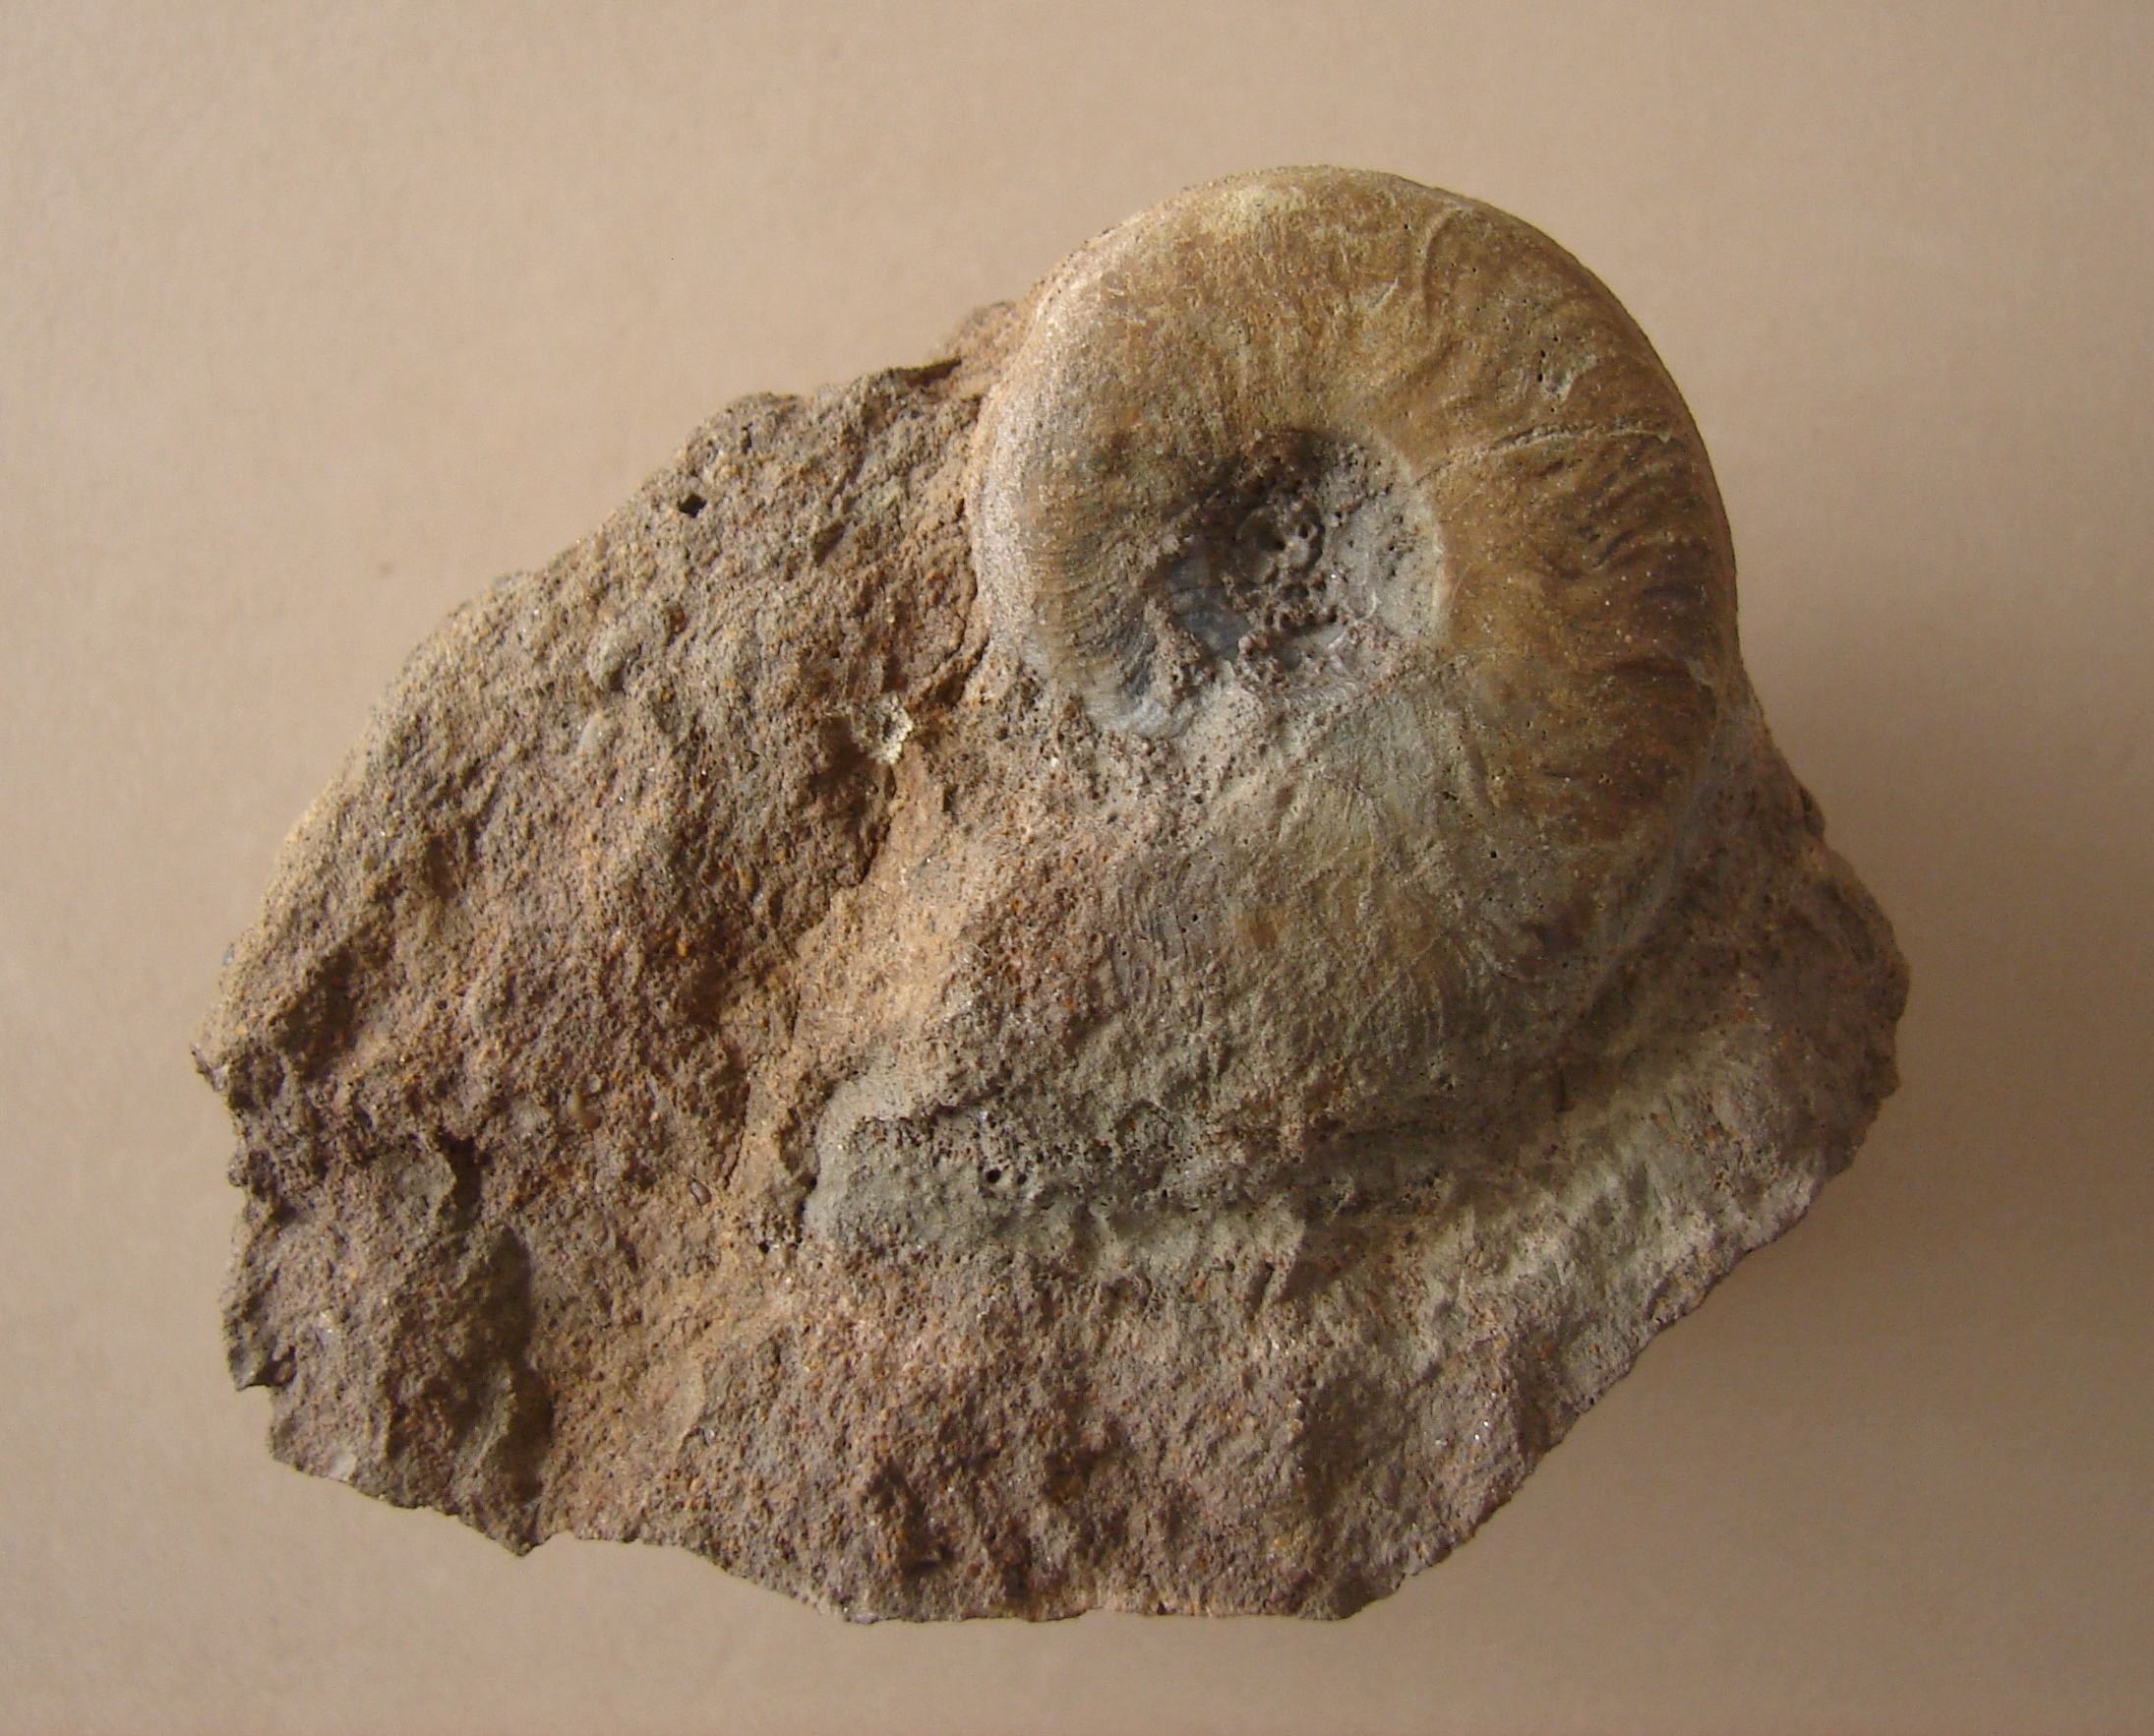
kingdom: Animalia
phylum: Mollusca
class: Cephalopoda
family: Graphoceratidae
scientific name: Graphoceratidae
